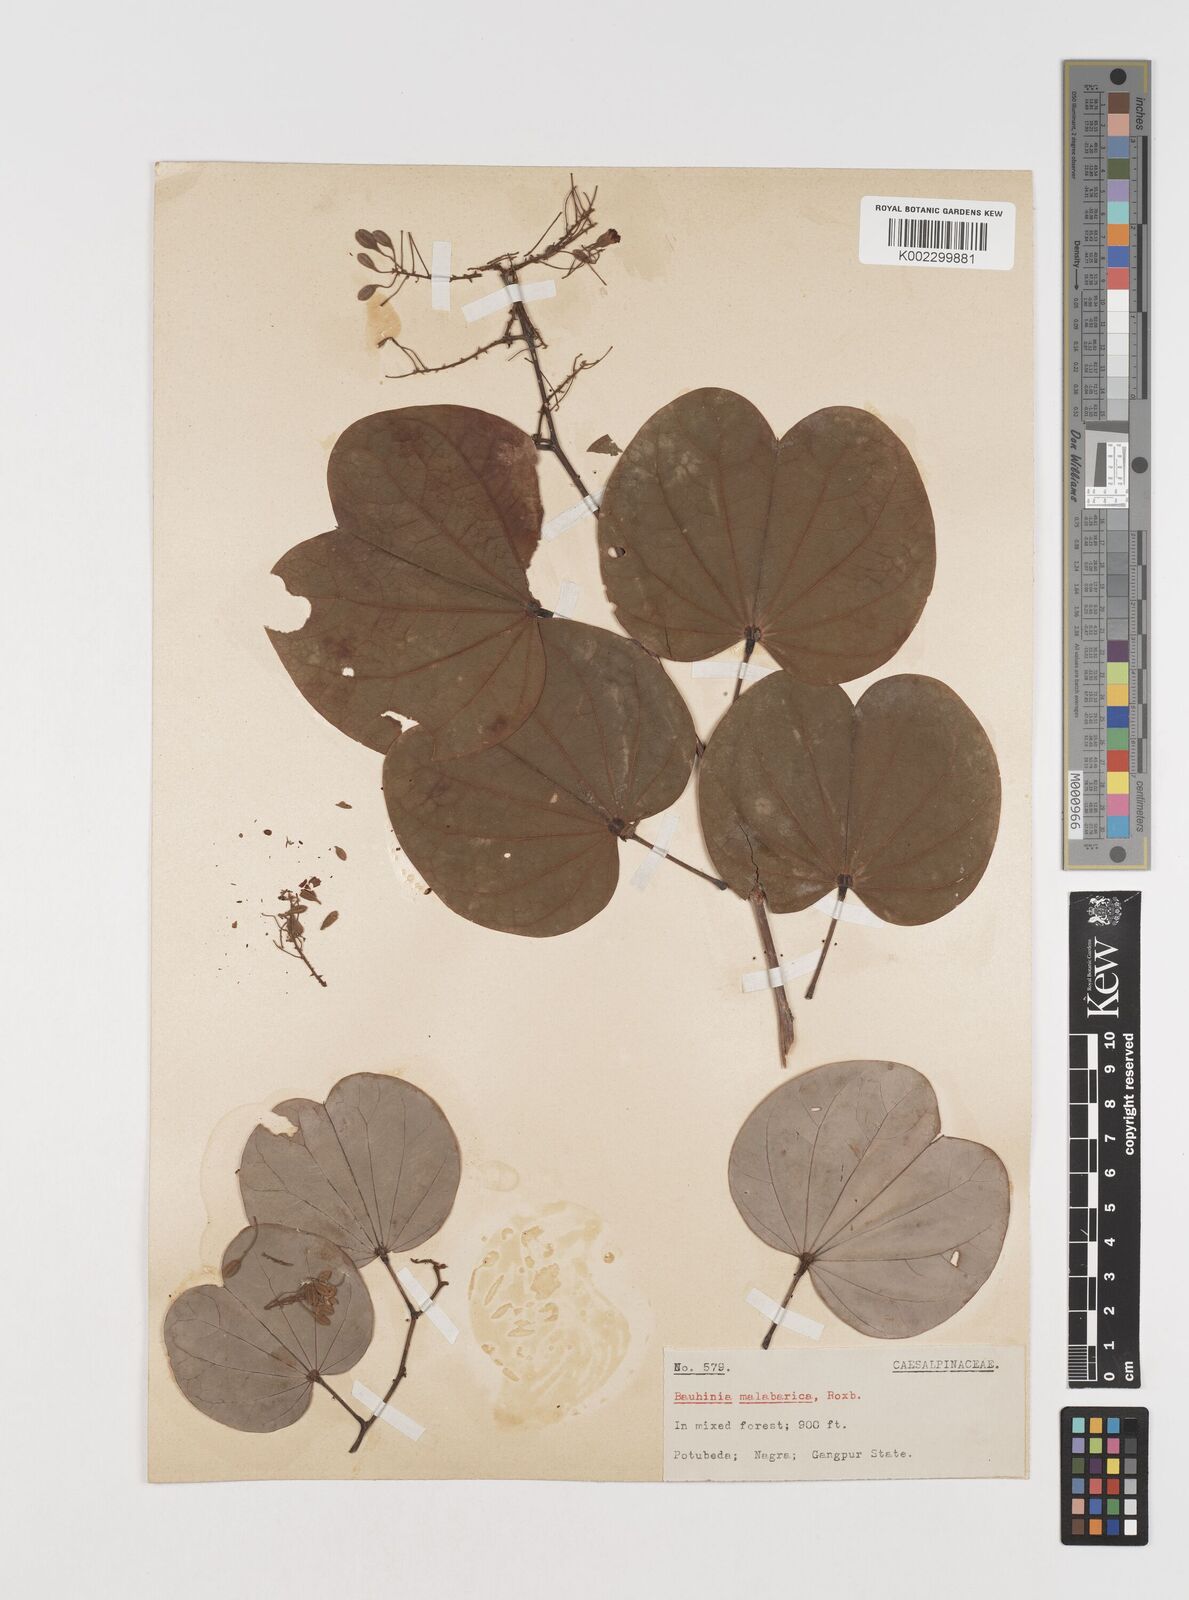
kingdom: Plantae
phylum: Tracheophyta
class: Magnoliopsida
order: Fabales
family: Fabaceae
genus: Piliostigma
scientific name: Piliostigma malabaricum
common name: Malabar bauhinia
